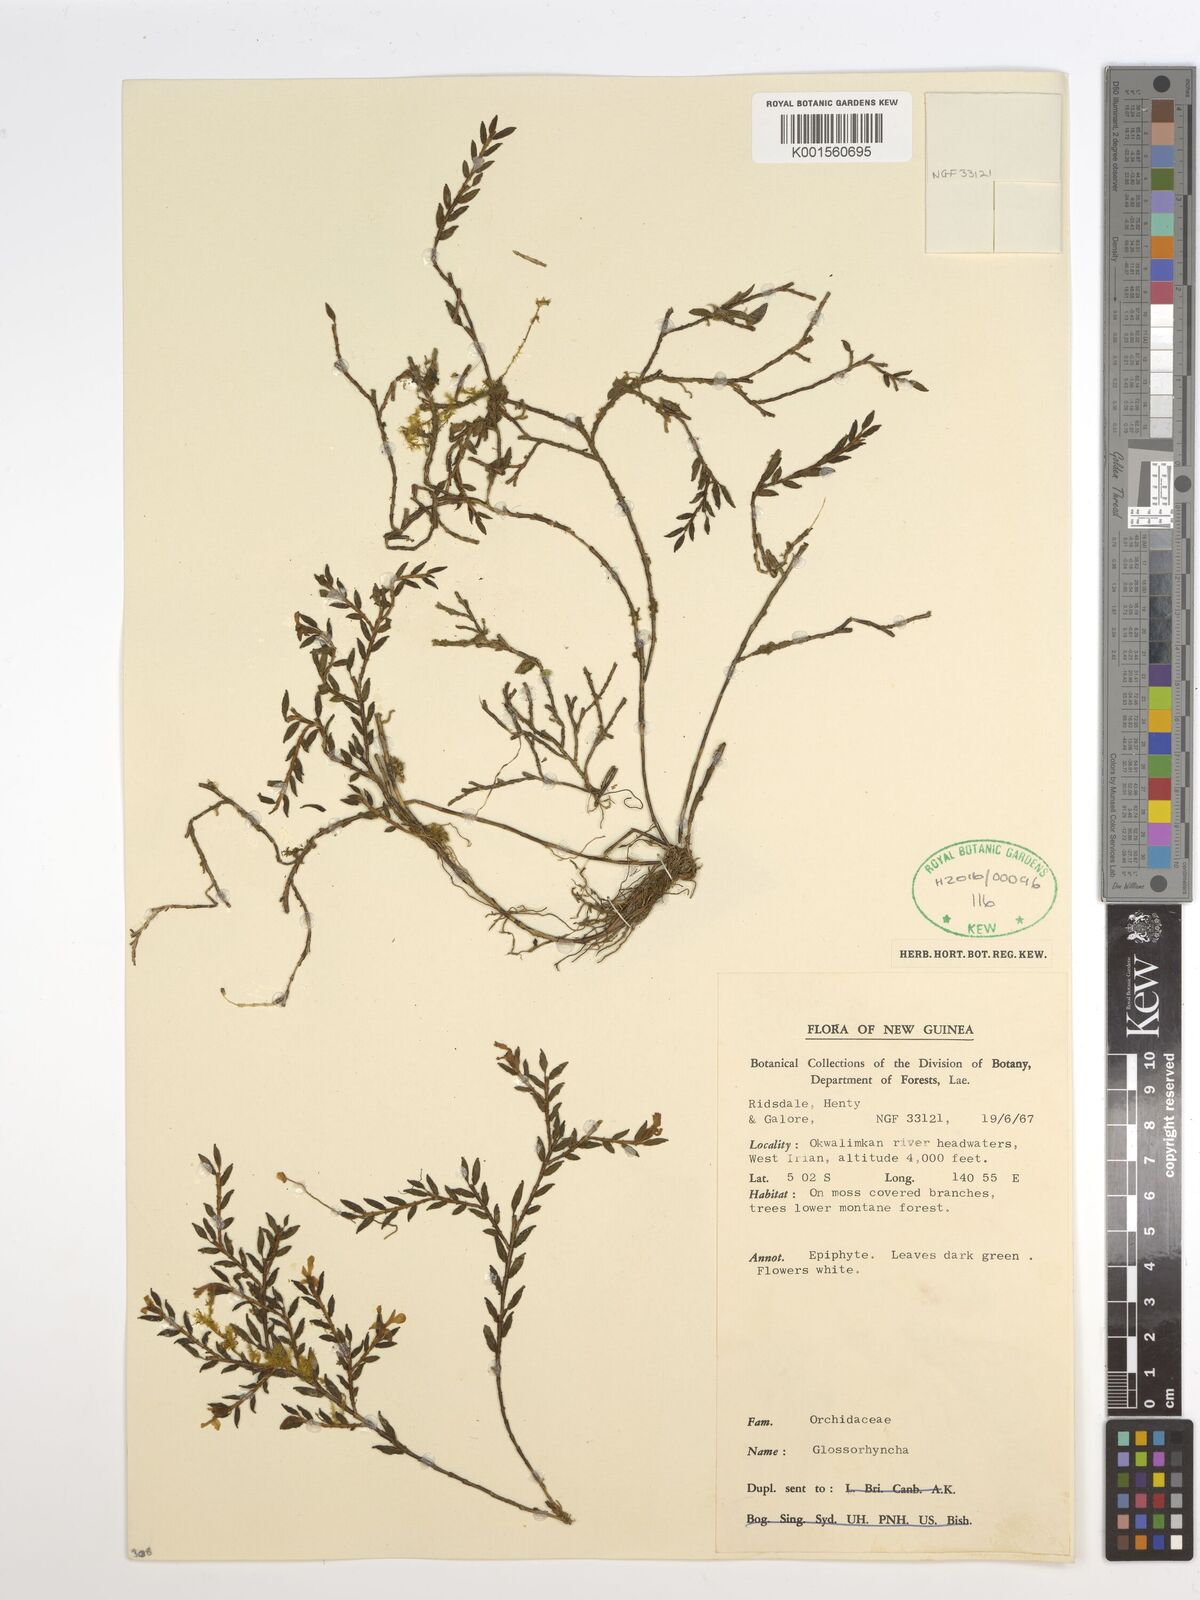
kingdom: Plantae
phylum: Tracheophyta
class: Liliopsida
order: Asparagales
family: Orchidaceae
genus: Glomera
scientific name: Glomera
